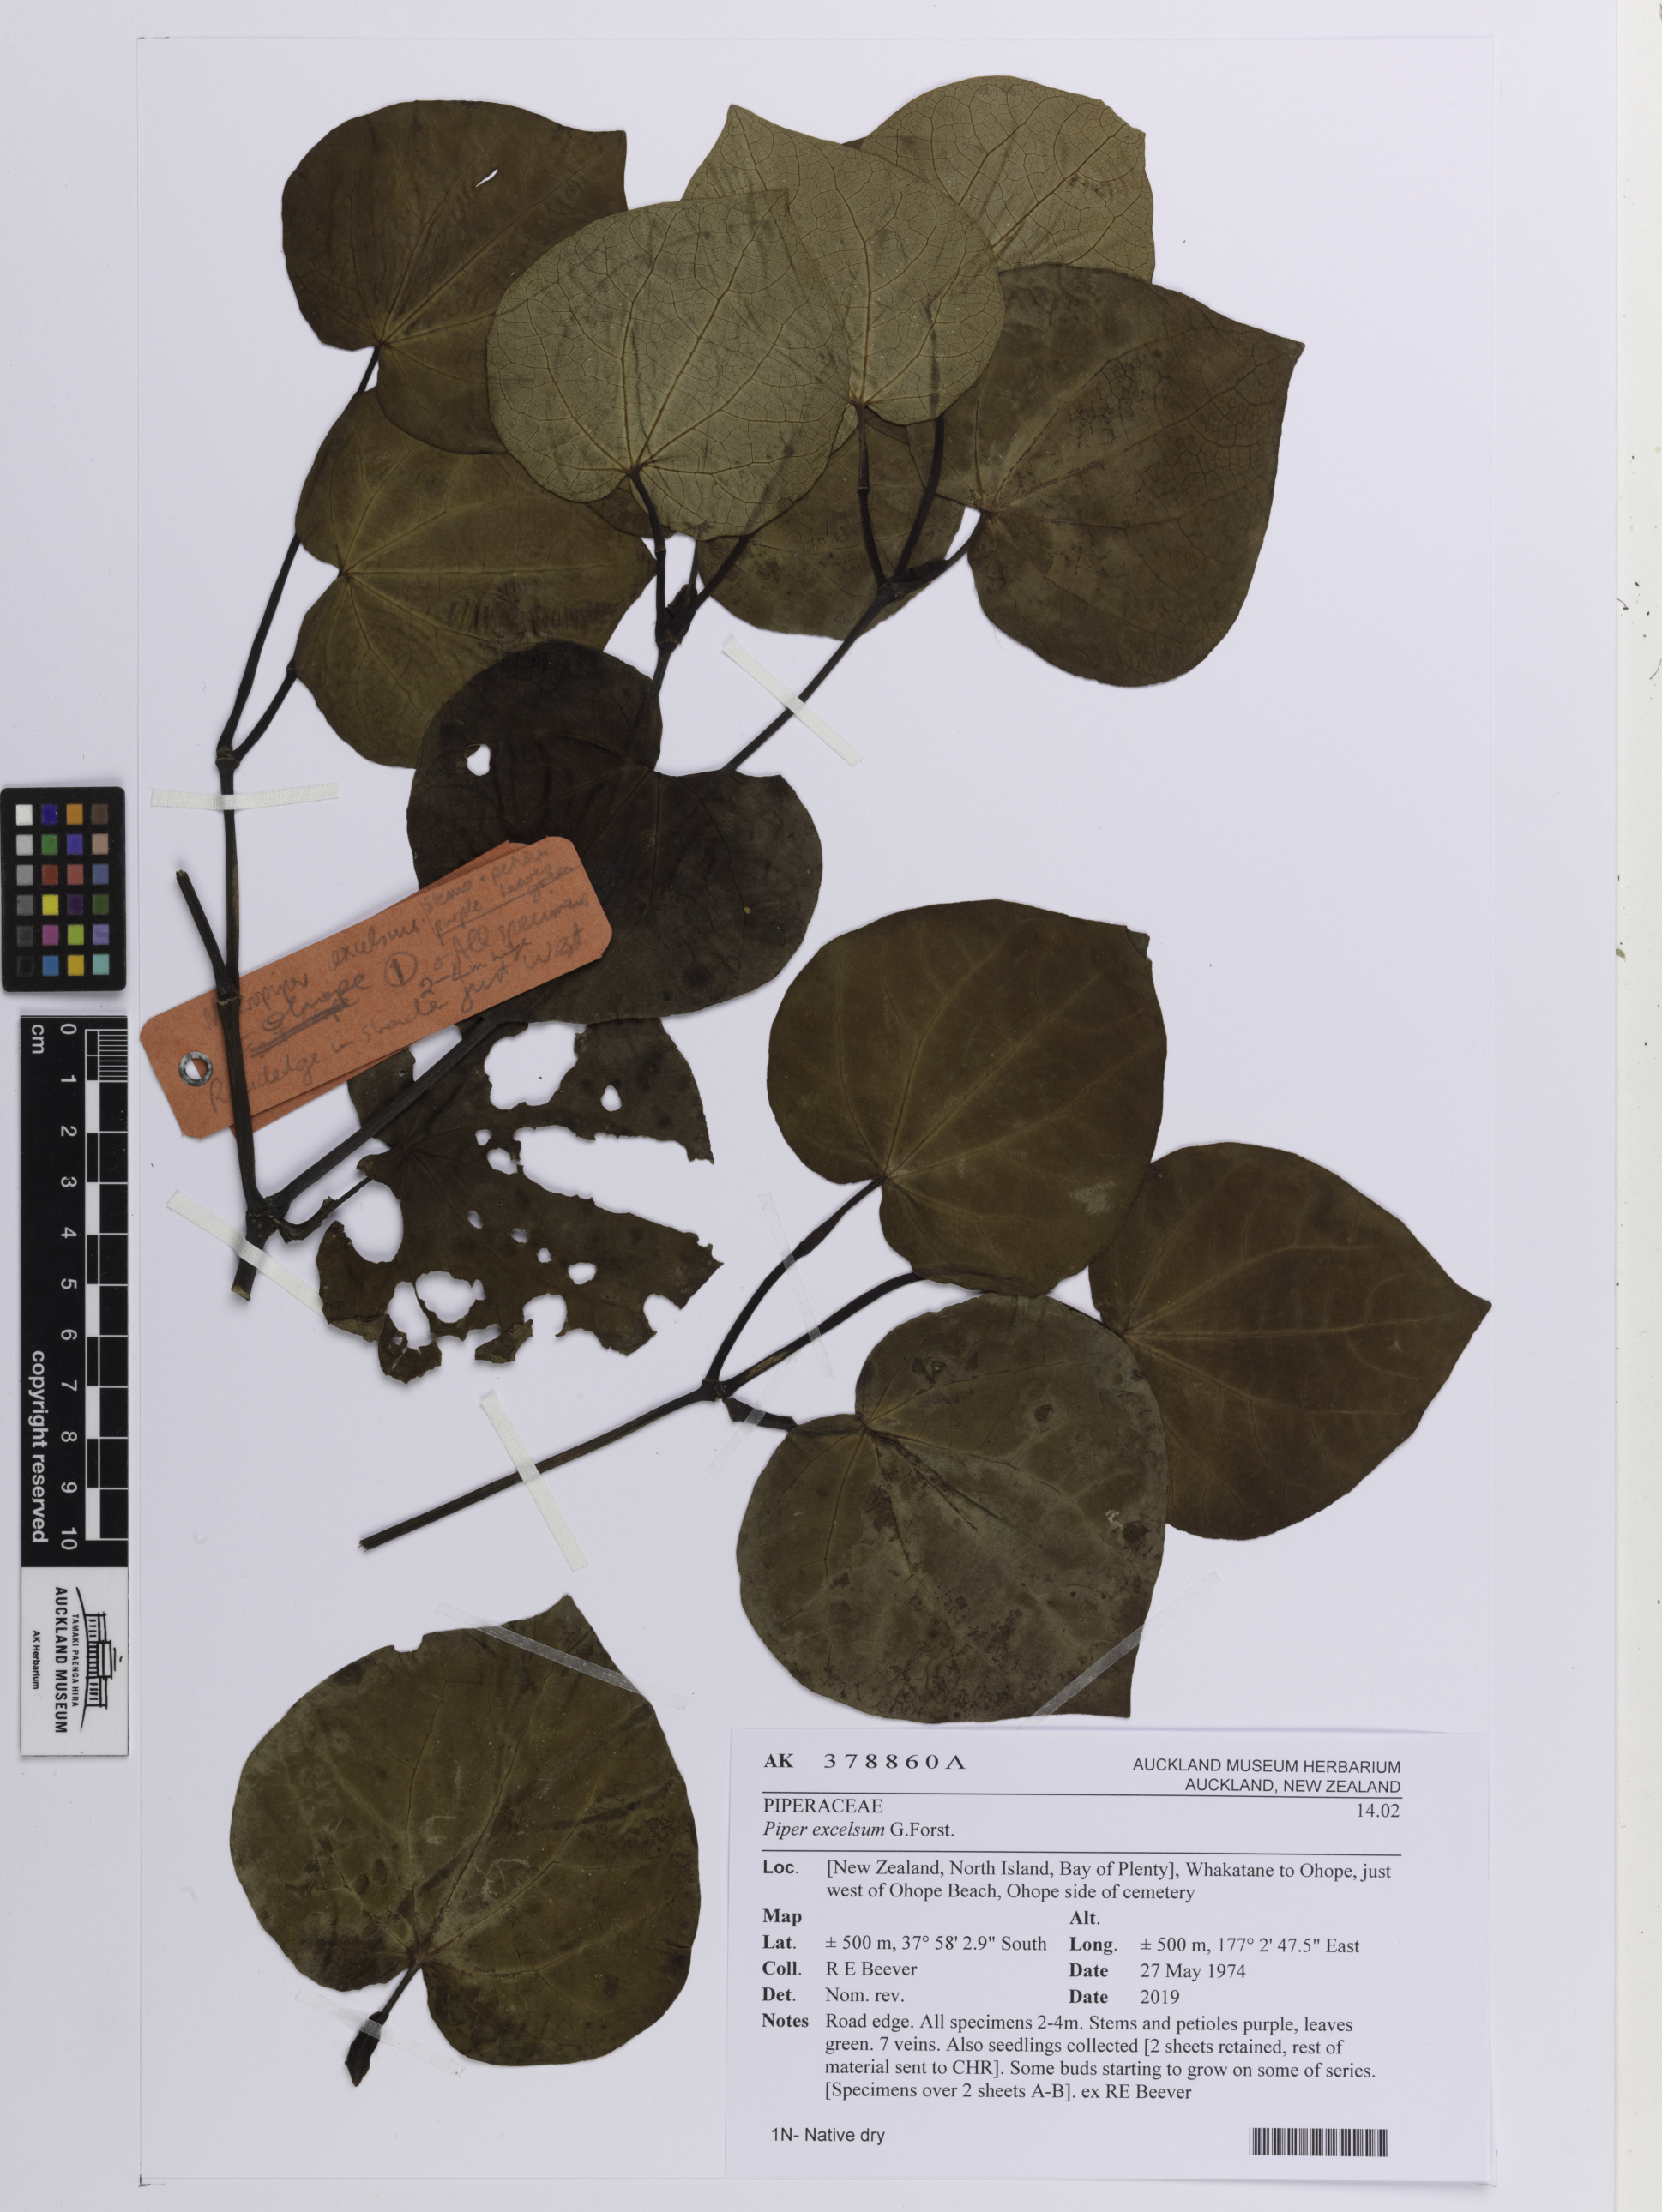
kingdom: Plantae
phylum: Tracheophyta
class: Magnoliopsida
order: Piperales
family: Piperaceae
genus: Macropiper
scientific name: Macropiper excelsum
